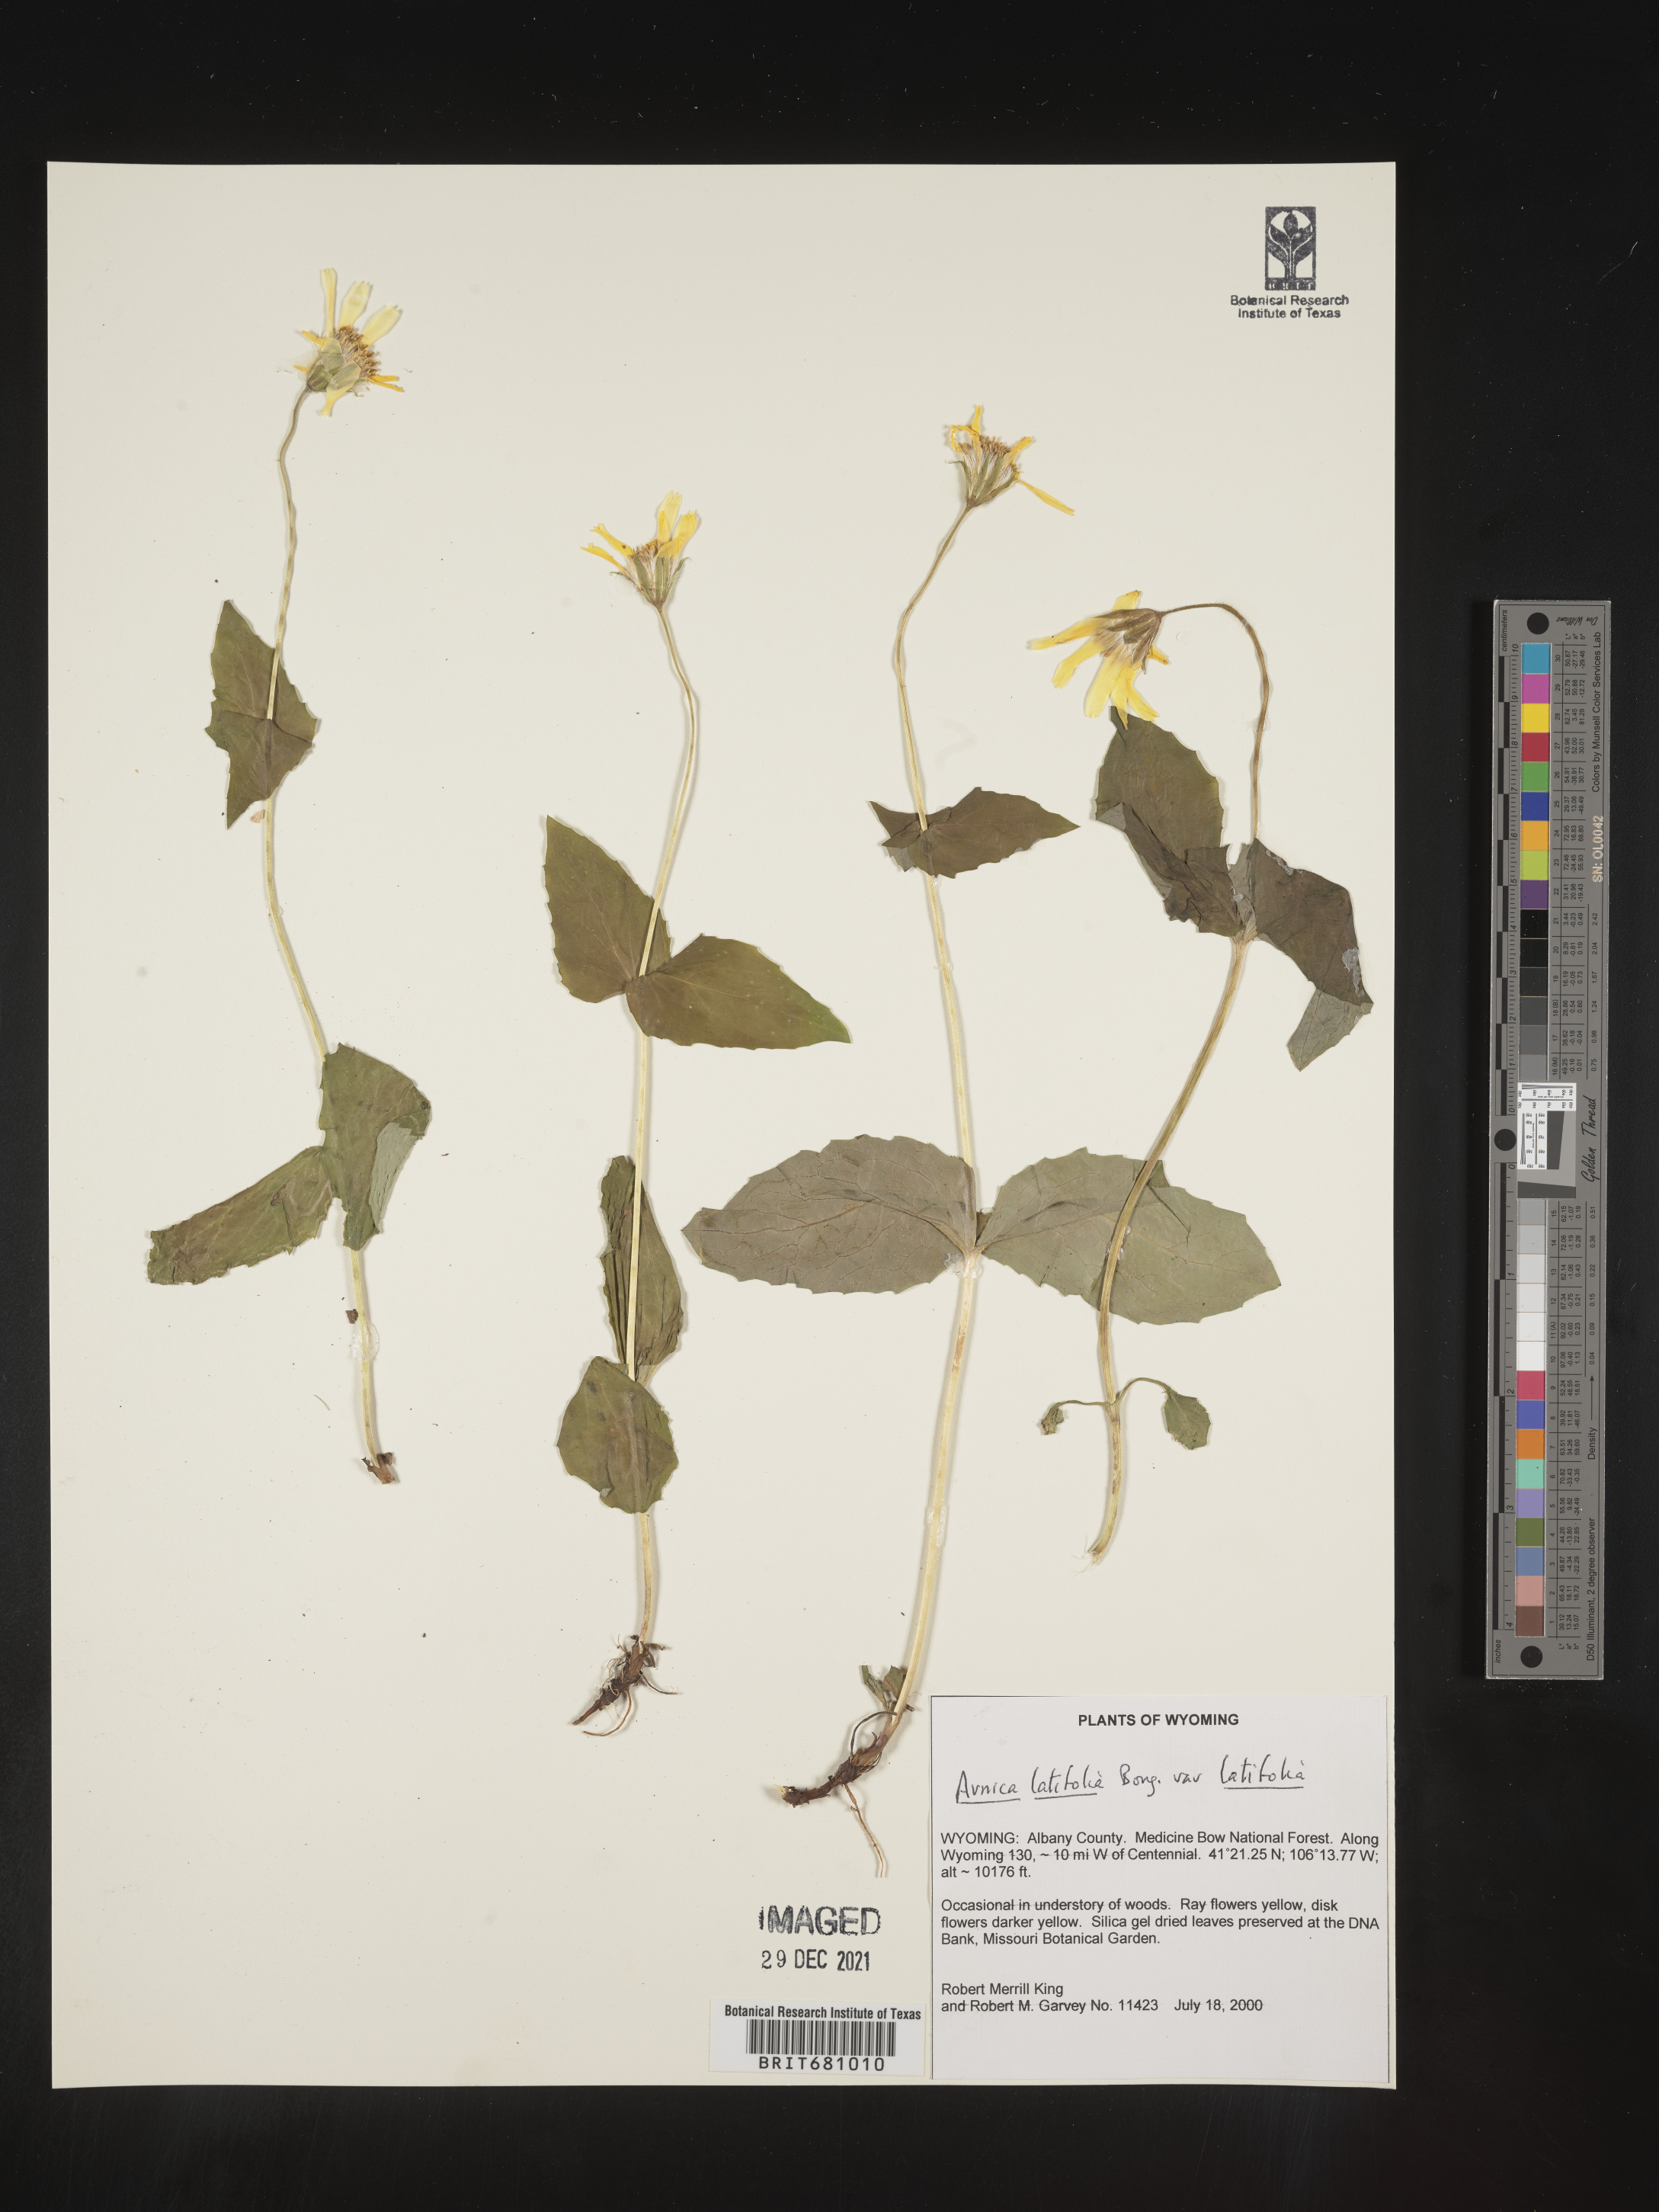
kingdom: Plantae
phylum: Tracheophyta
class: Magnoliopsida
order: Asterales
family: Asteraceae
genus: Arnica
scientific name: Arnica latifolia
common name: Arnica
